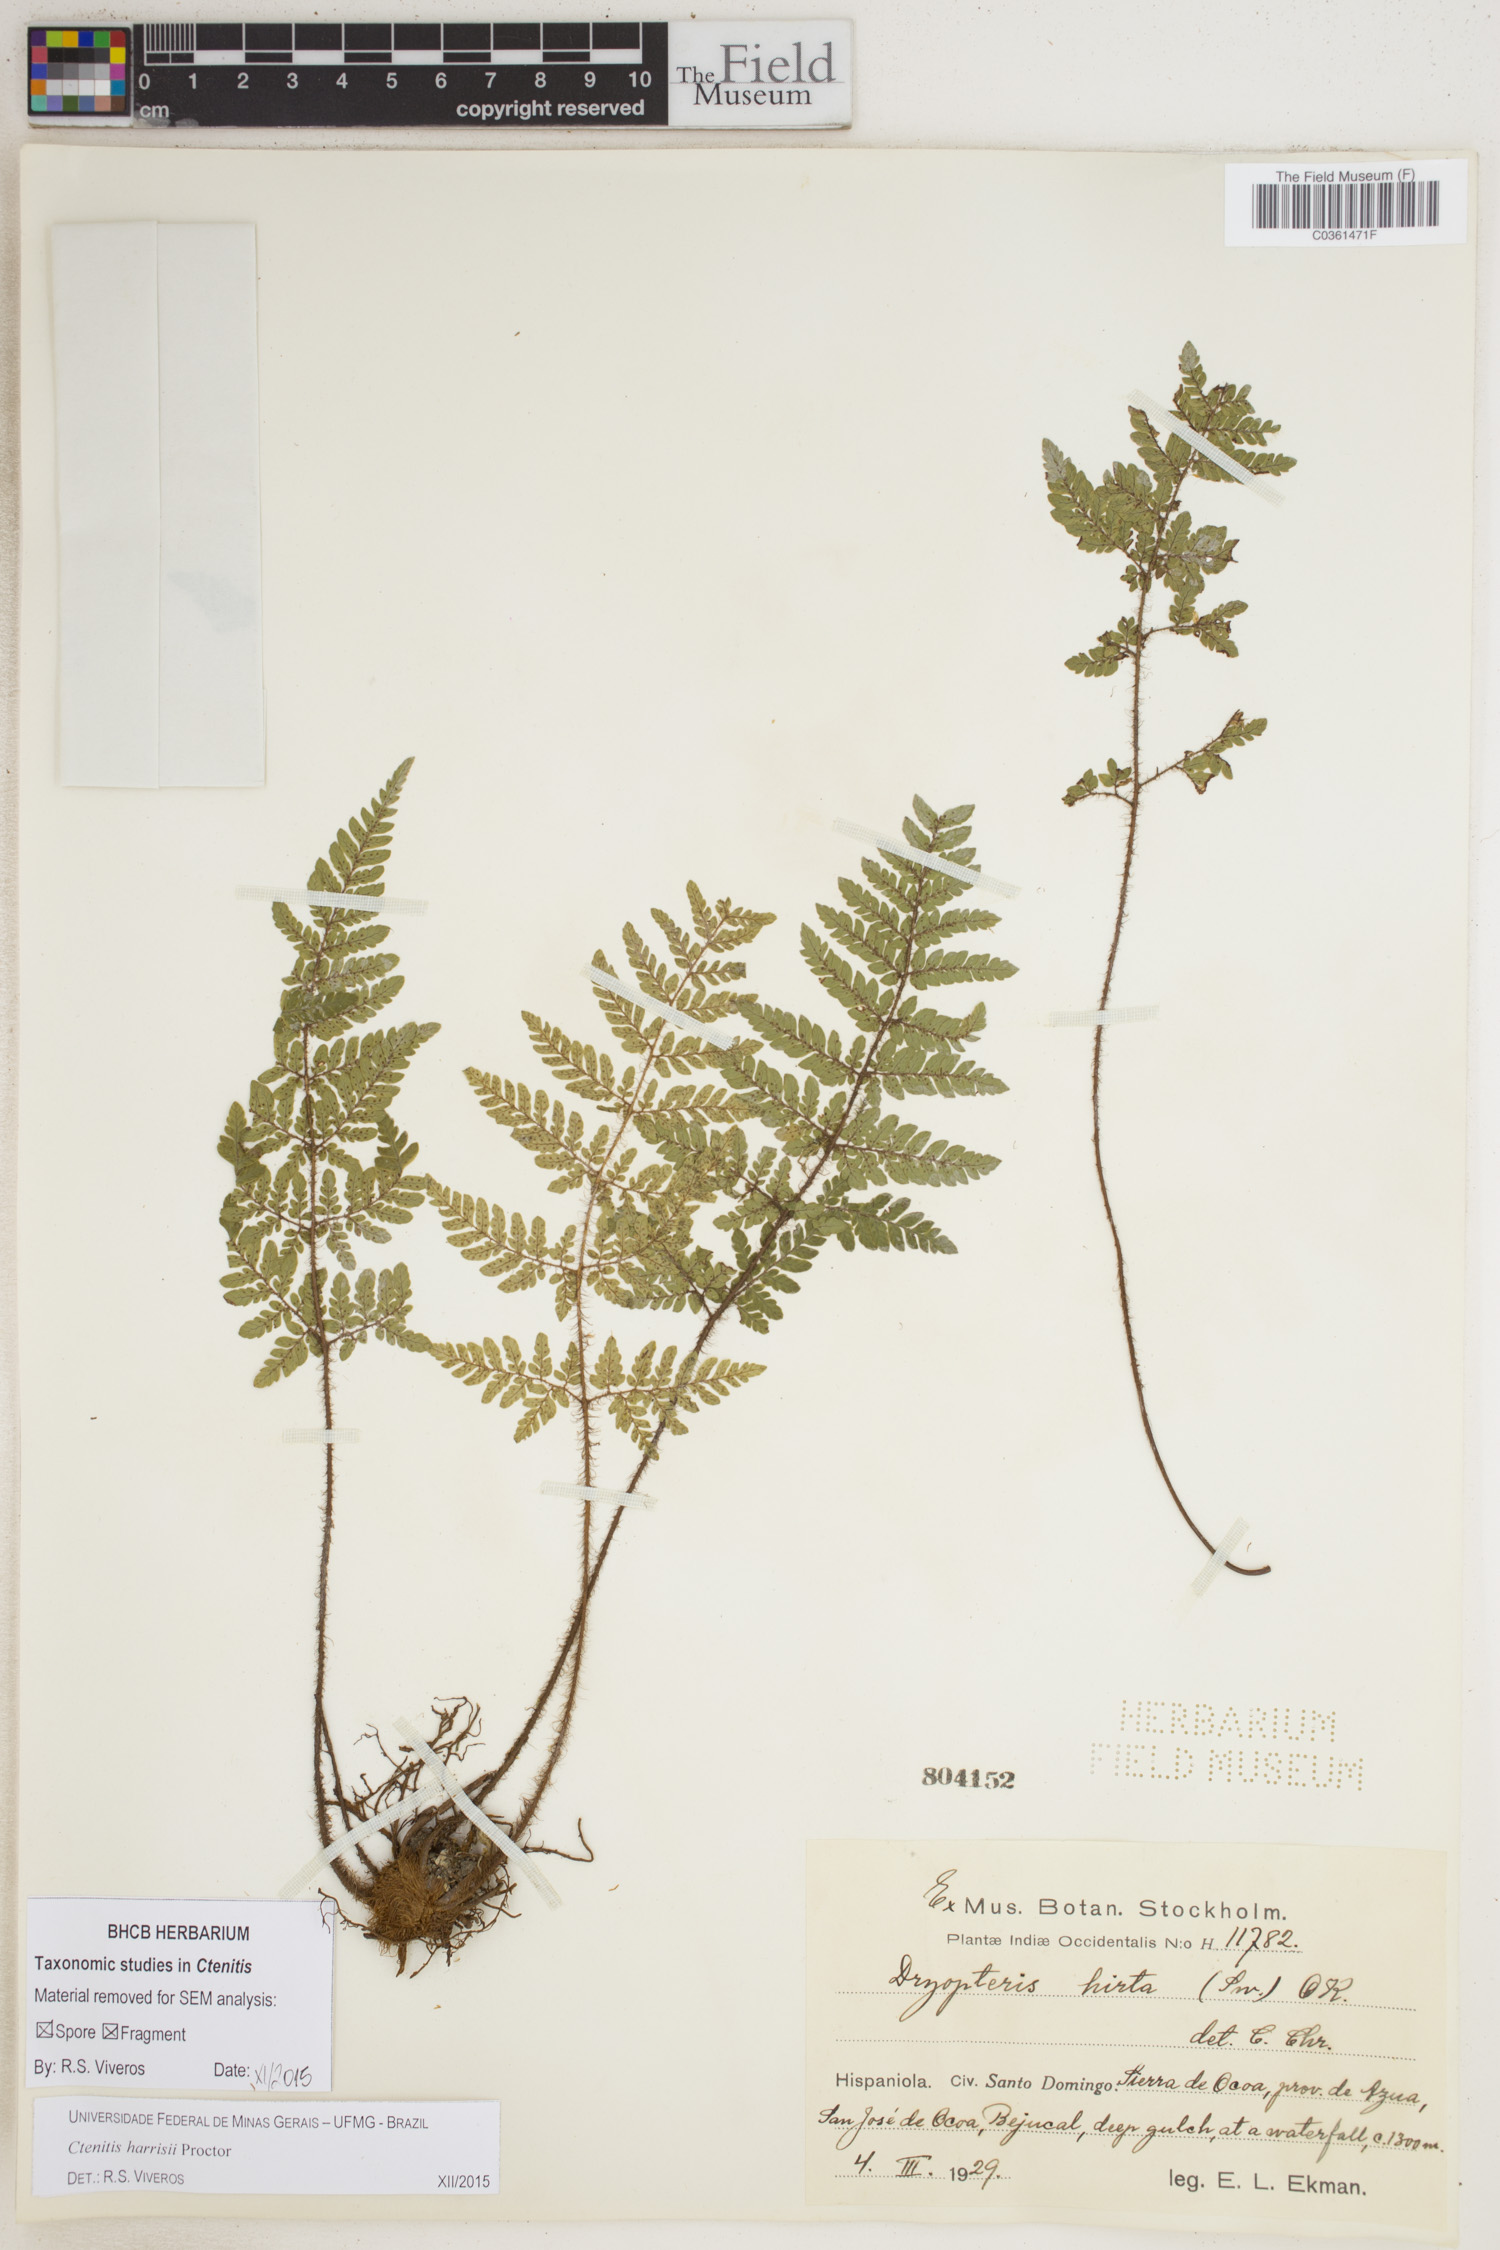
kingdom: Plantae
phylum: Tracheophyta
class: Polypodiopsida
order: Polypodiales
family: Dryopteridaceae
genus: Ctenitis
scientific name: Ctenitis harrisii
